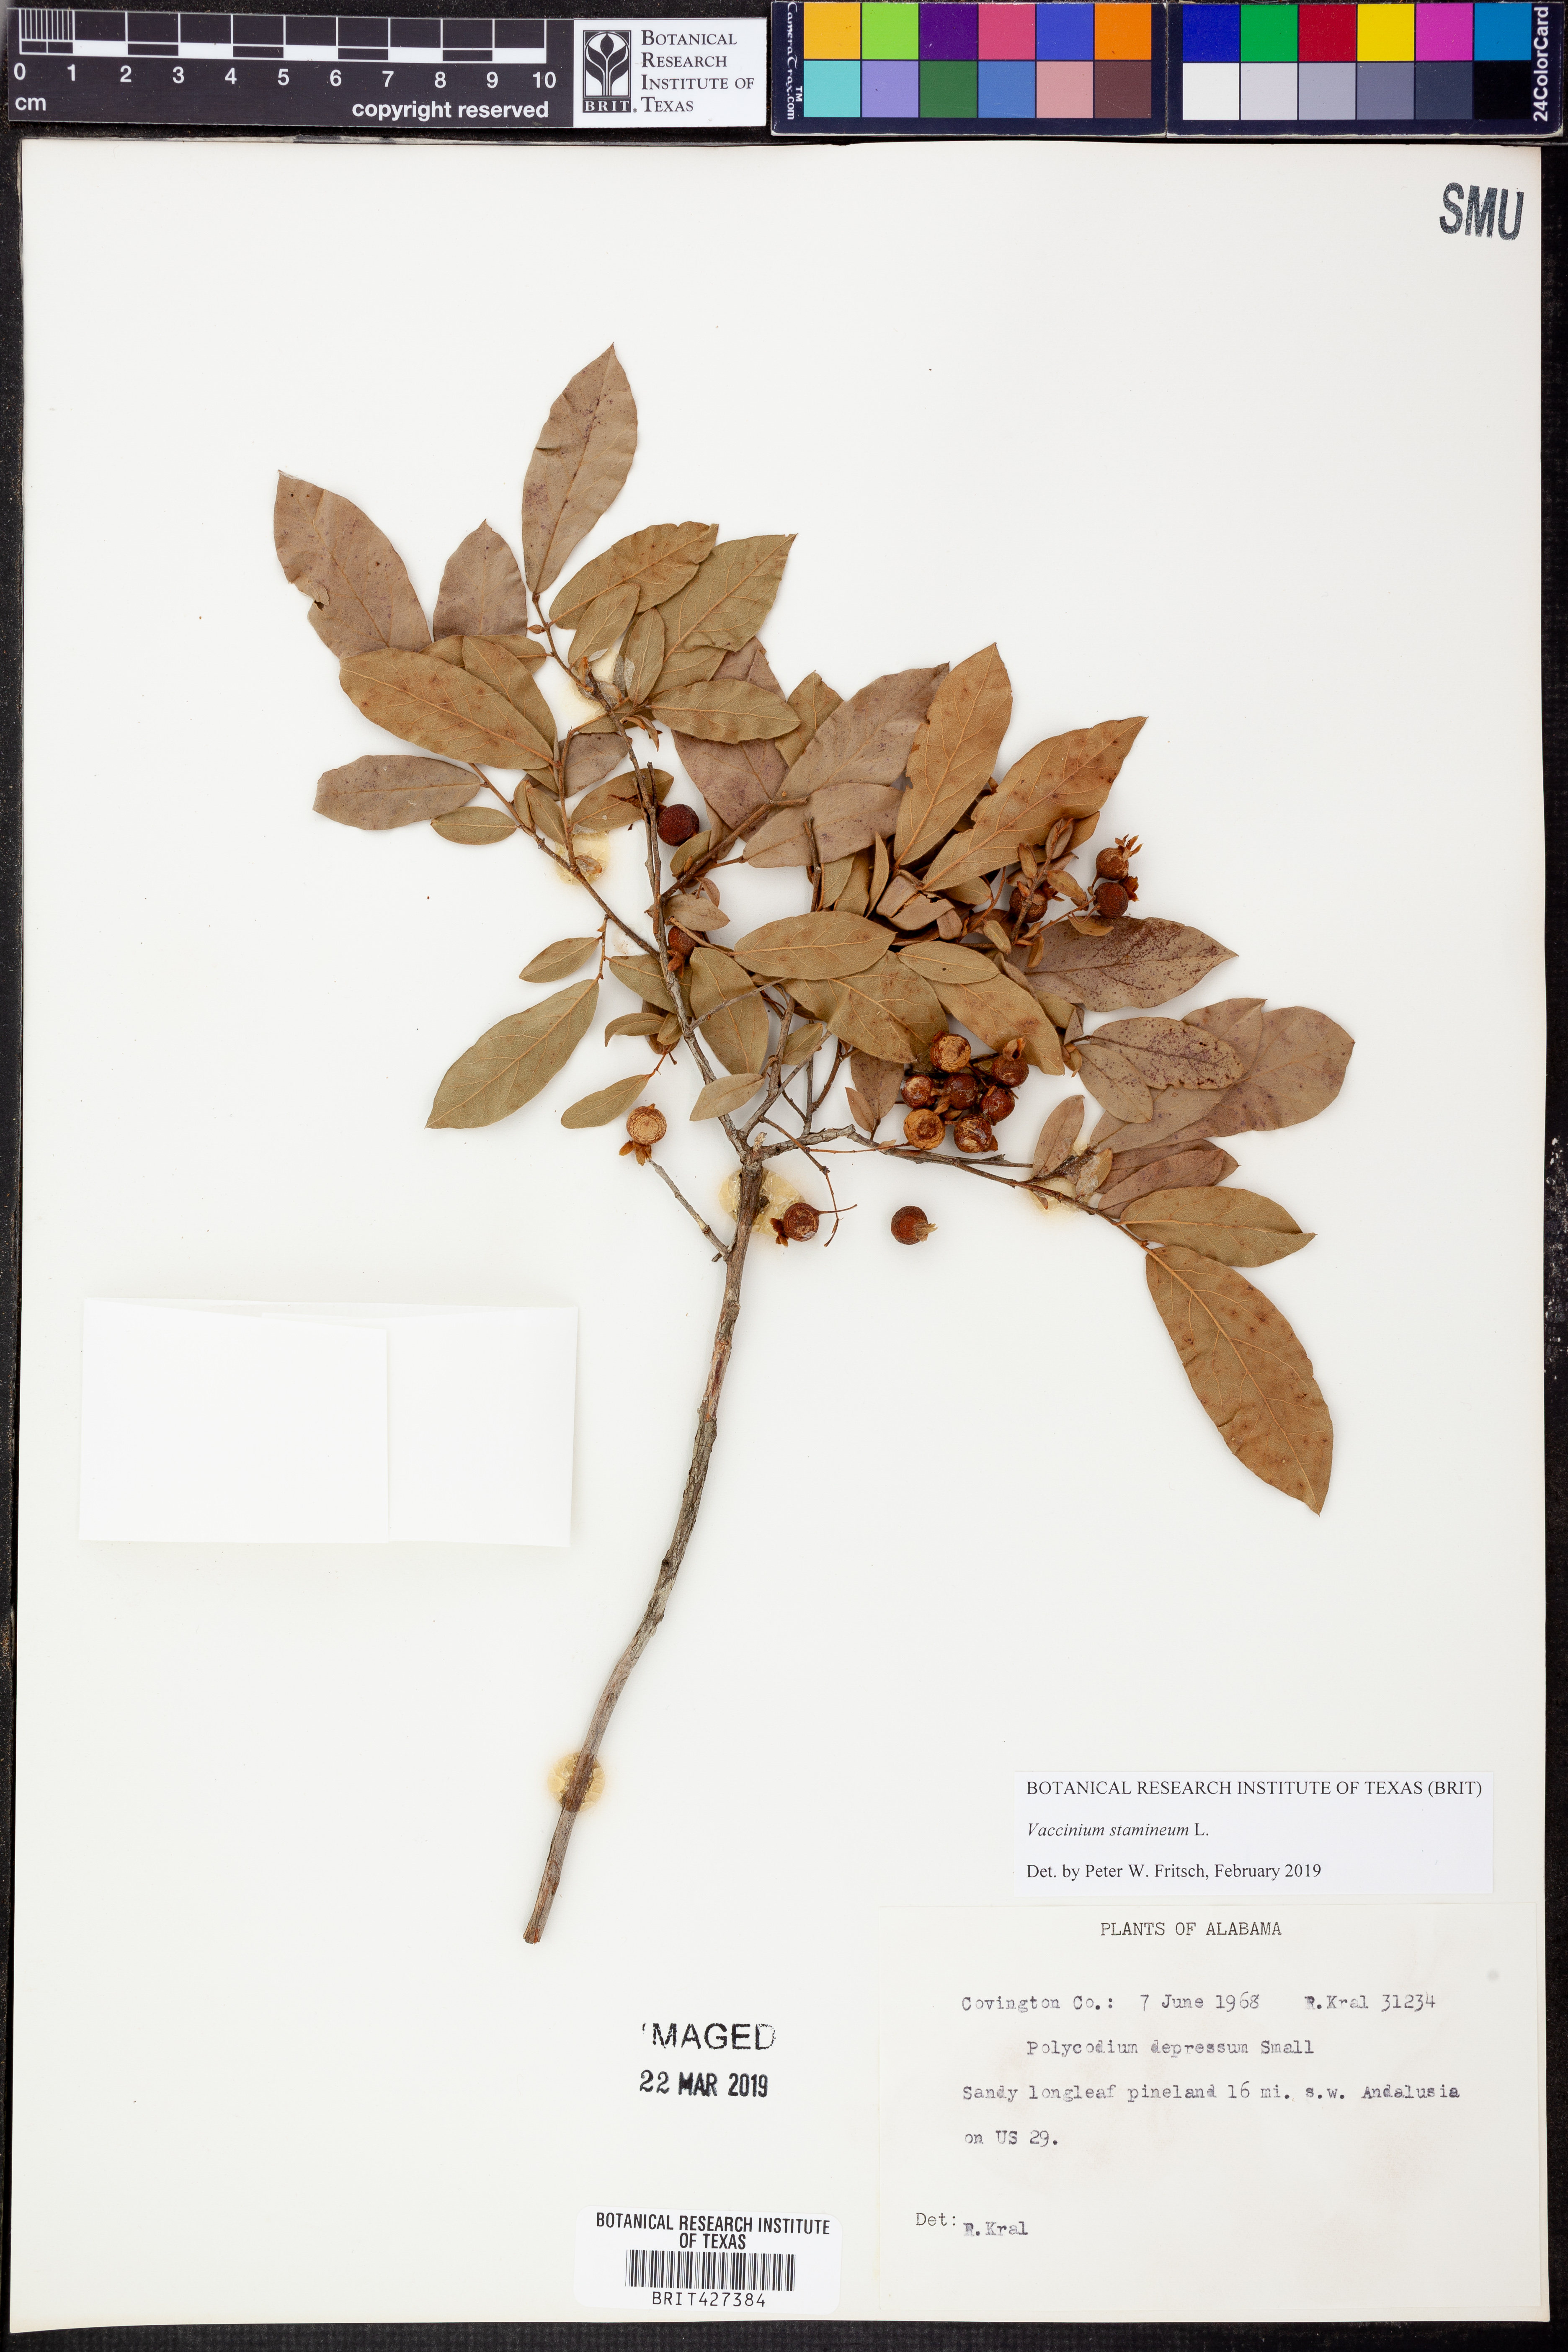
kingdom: Plantae
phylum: Tracheophyta
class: Magnoliopsida
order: Ericales
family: Ericaceae
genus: Vaccinium
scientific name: Vaccinium stamineum
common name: Deerberry
